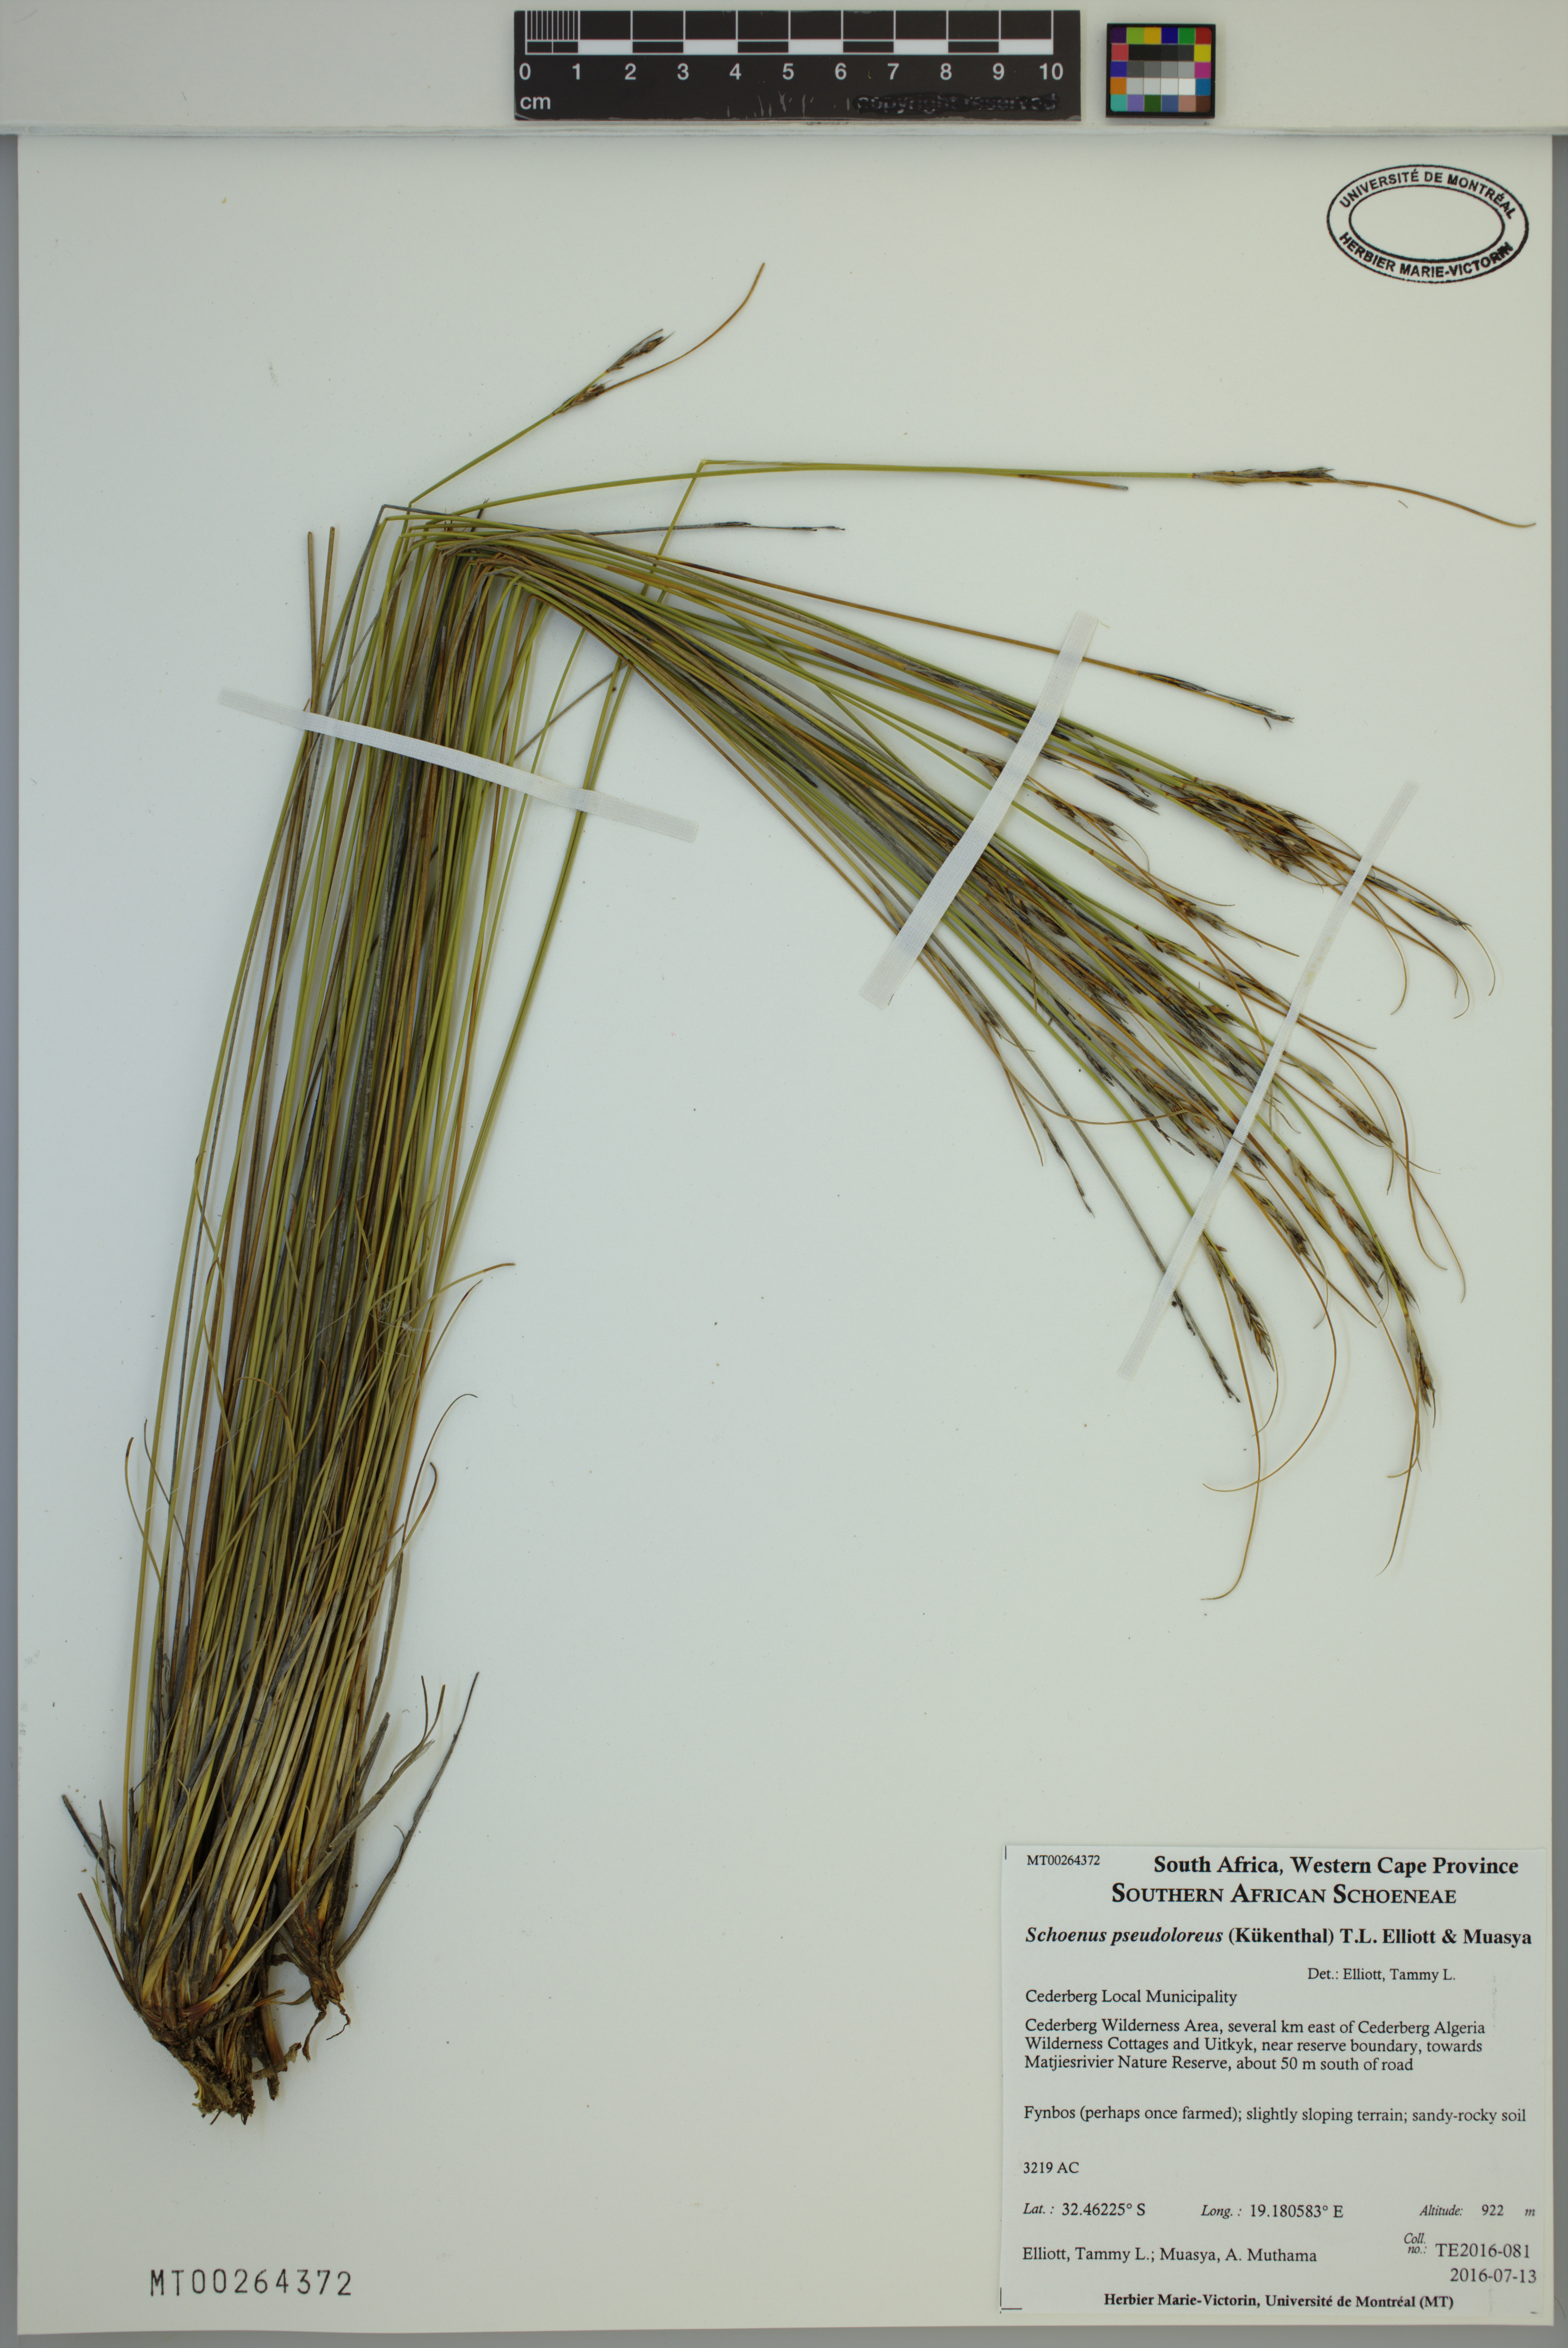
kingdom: Plantae
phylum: Tracheophyta
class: Liliopsida
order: Poales
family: Cyperaceae
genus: Schoenus
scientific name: Schoenus pseudoloreus
